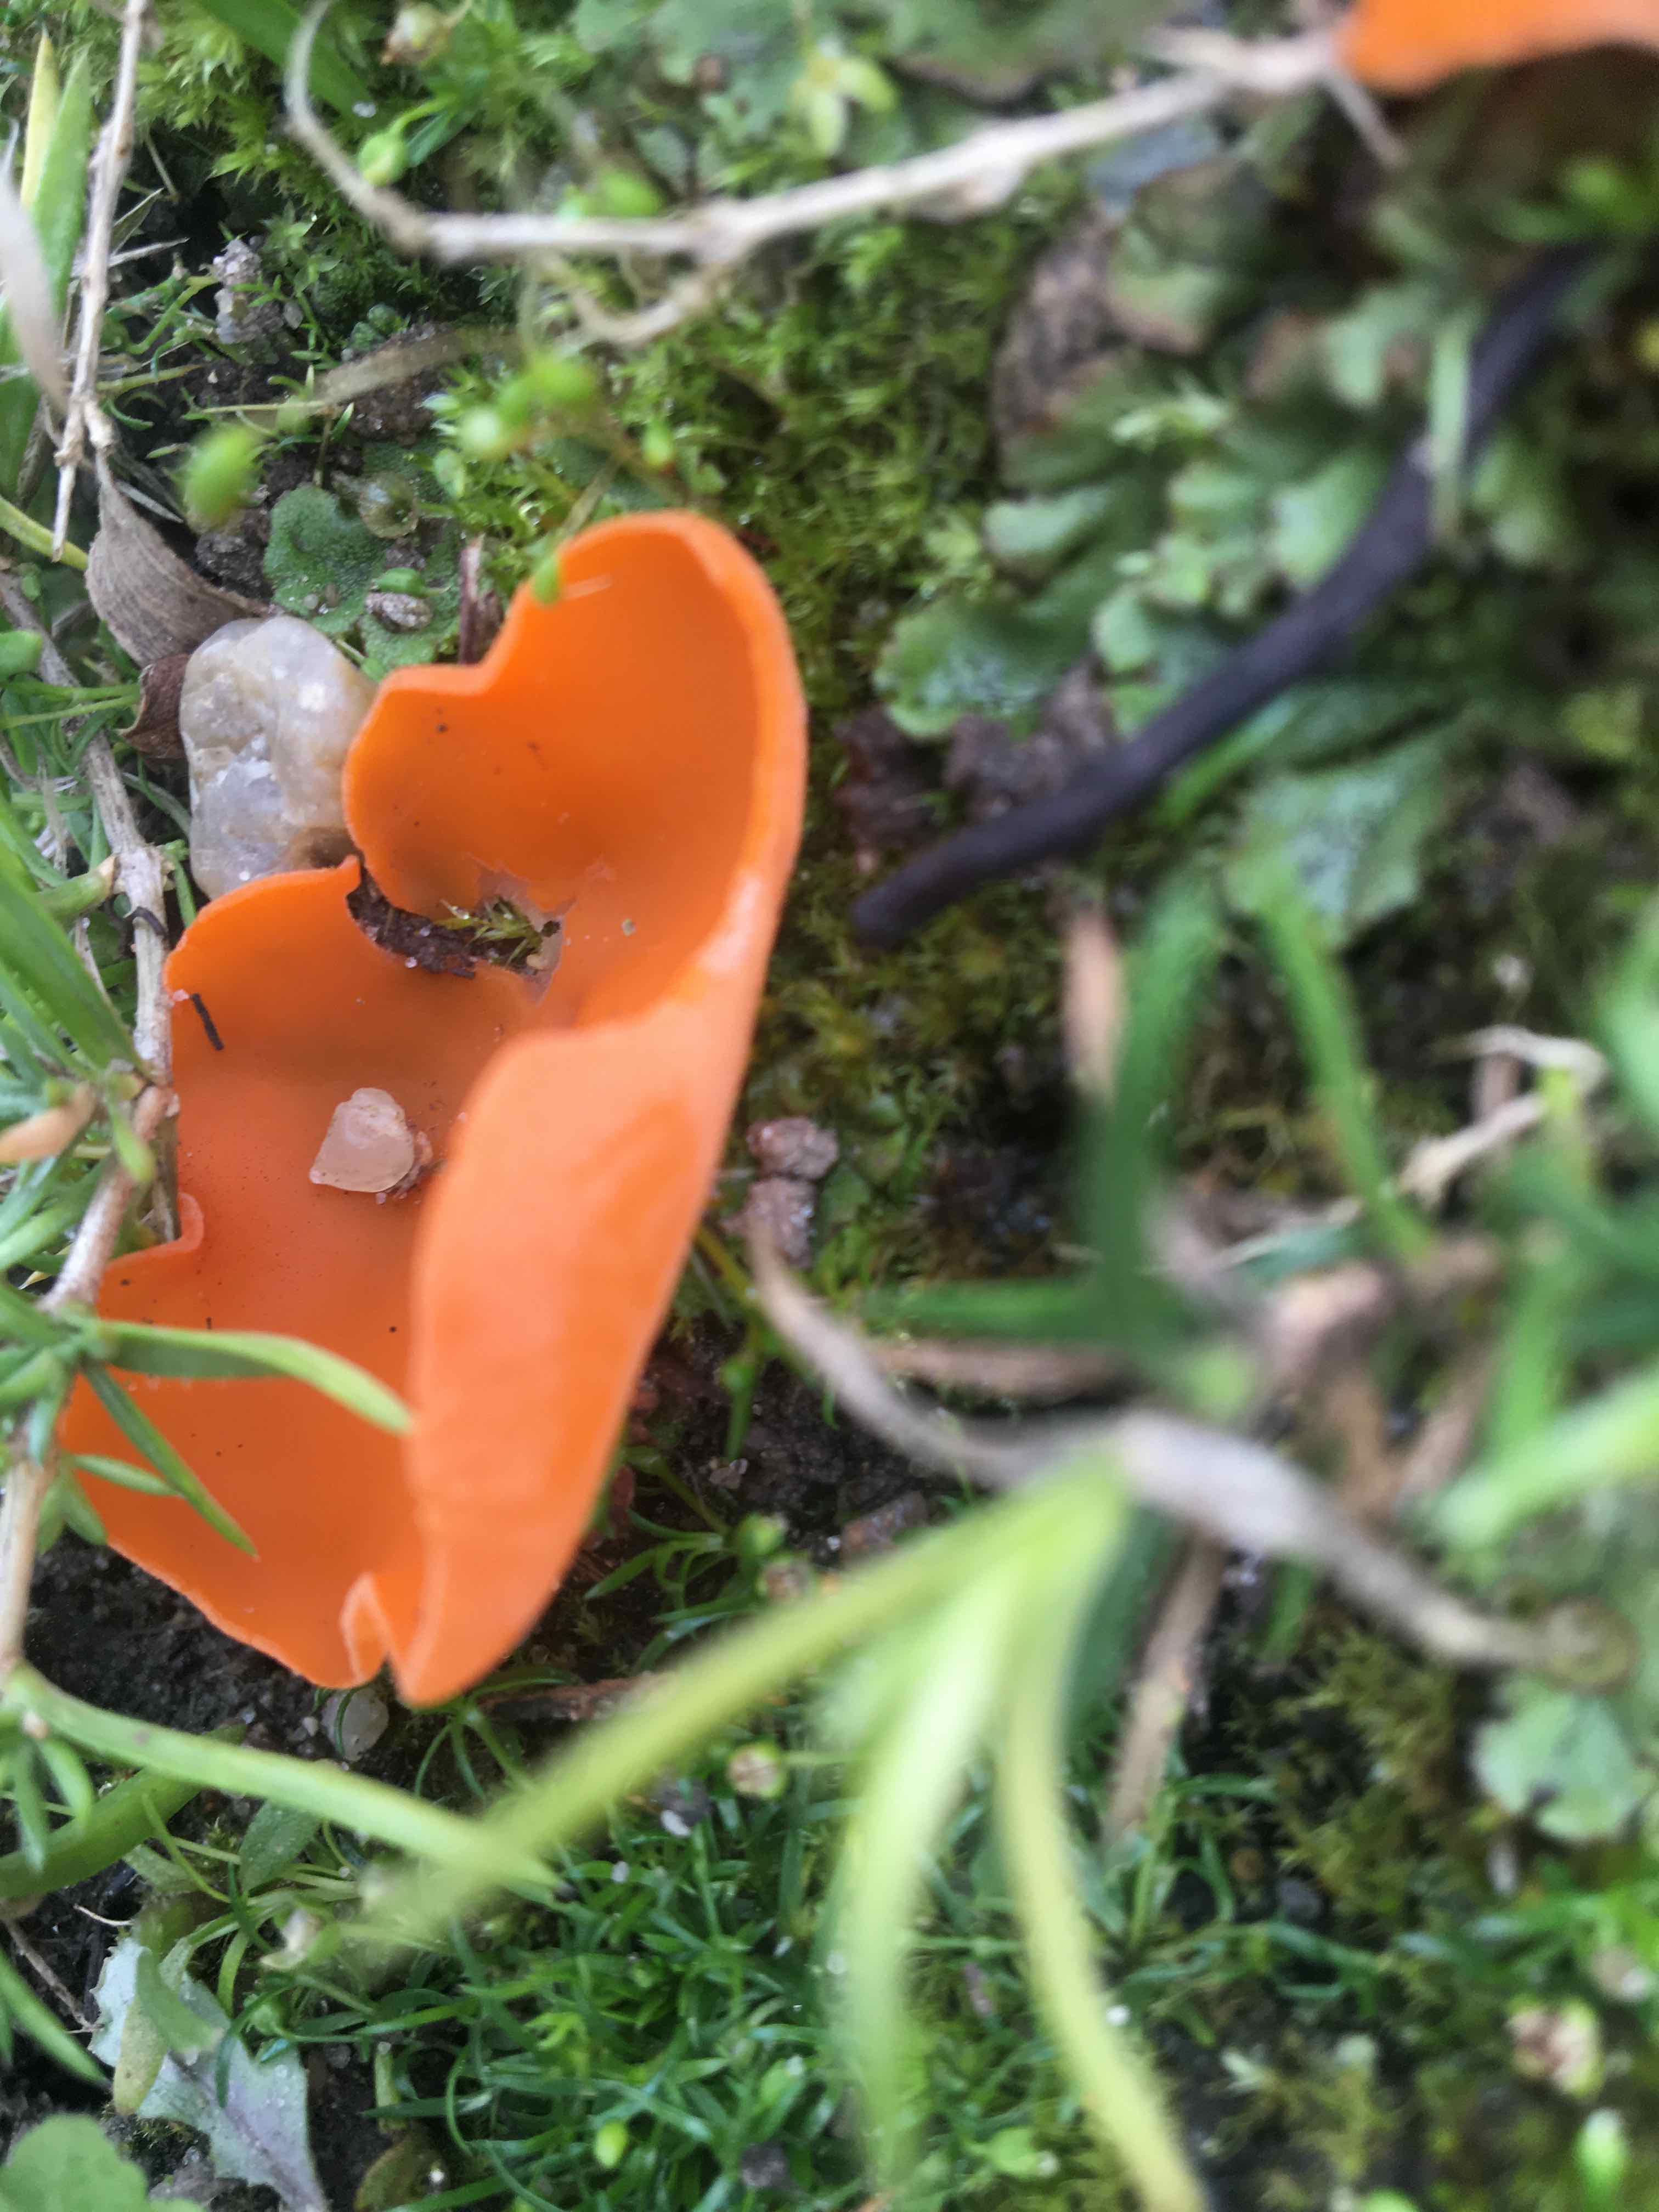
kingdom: Fungi
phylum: Ascomycota
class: Pezizomycetes
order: Pezizales
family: Pyronemataceae
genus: Aleuria
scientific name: Aleuria aurantia
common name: almindelig orangebæger
